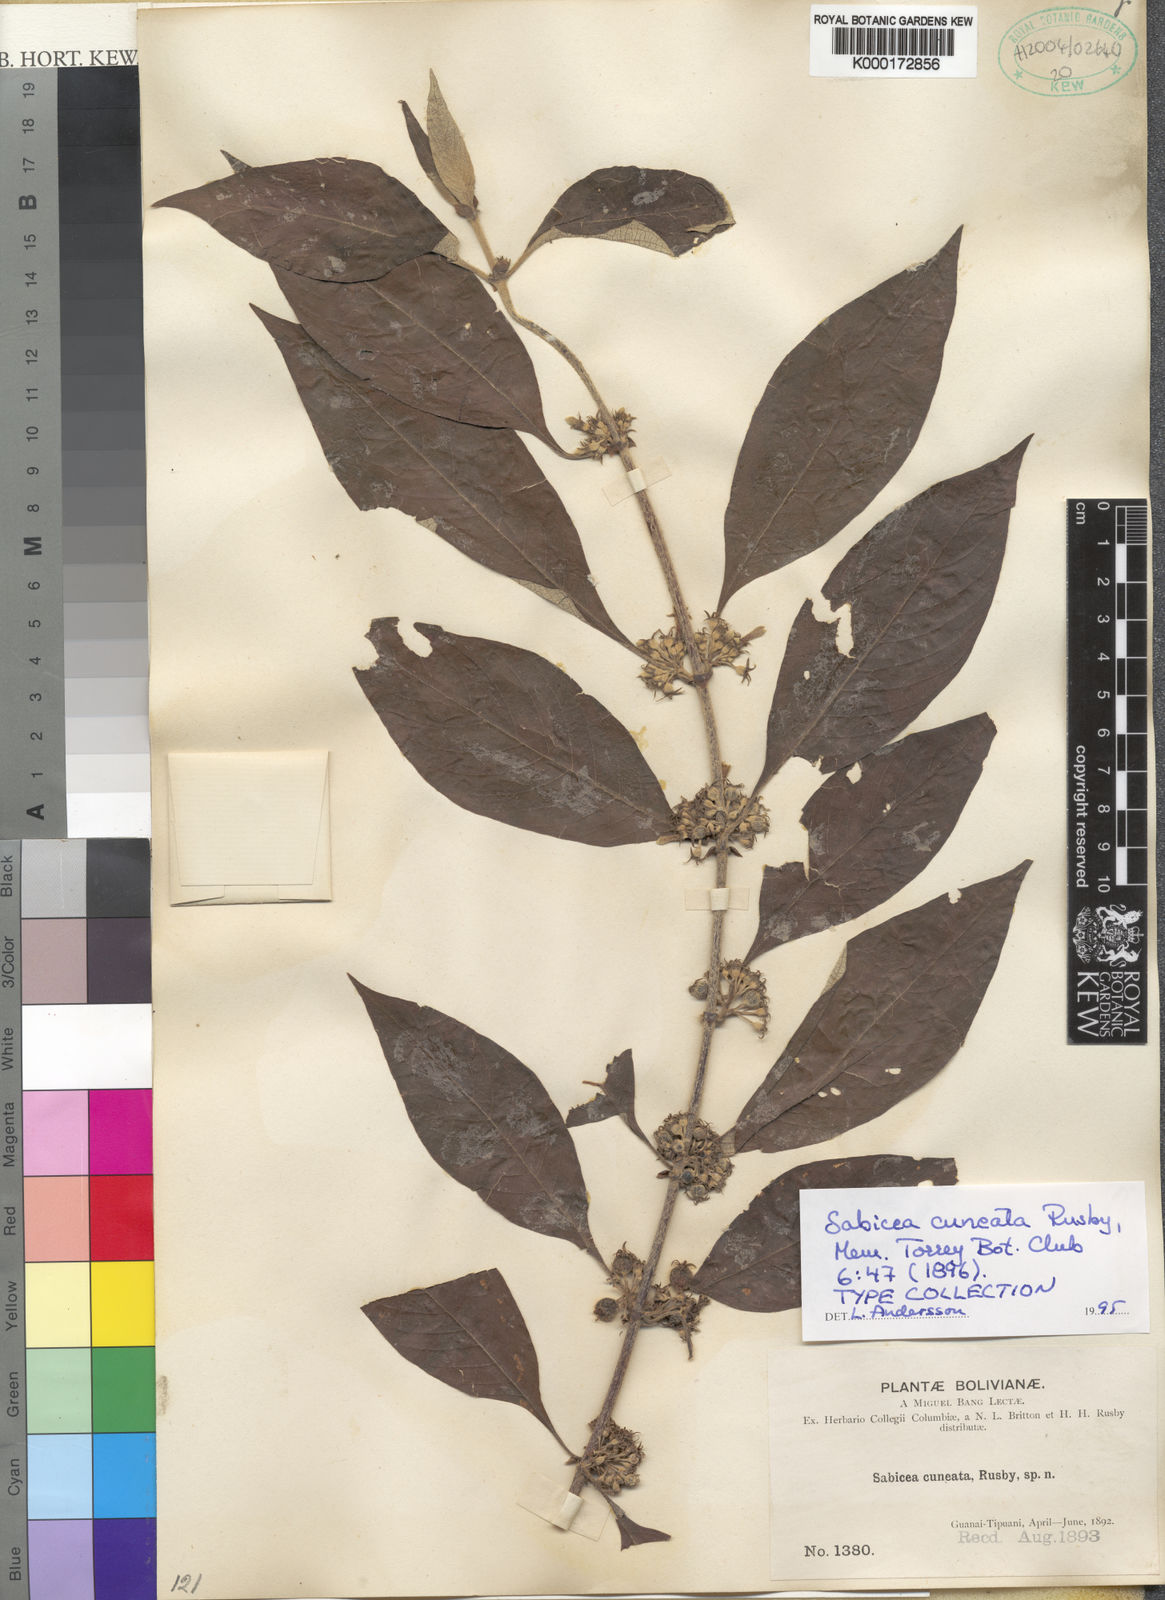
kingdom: Plantae
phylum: Tracheophyta
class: Magnoliopsida
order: Gentianales
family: Rubiaceae
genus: Sabicea
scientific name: Sabicea cuneata
